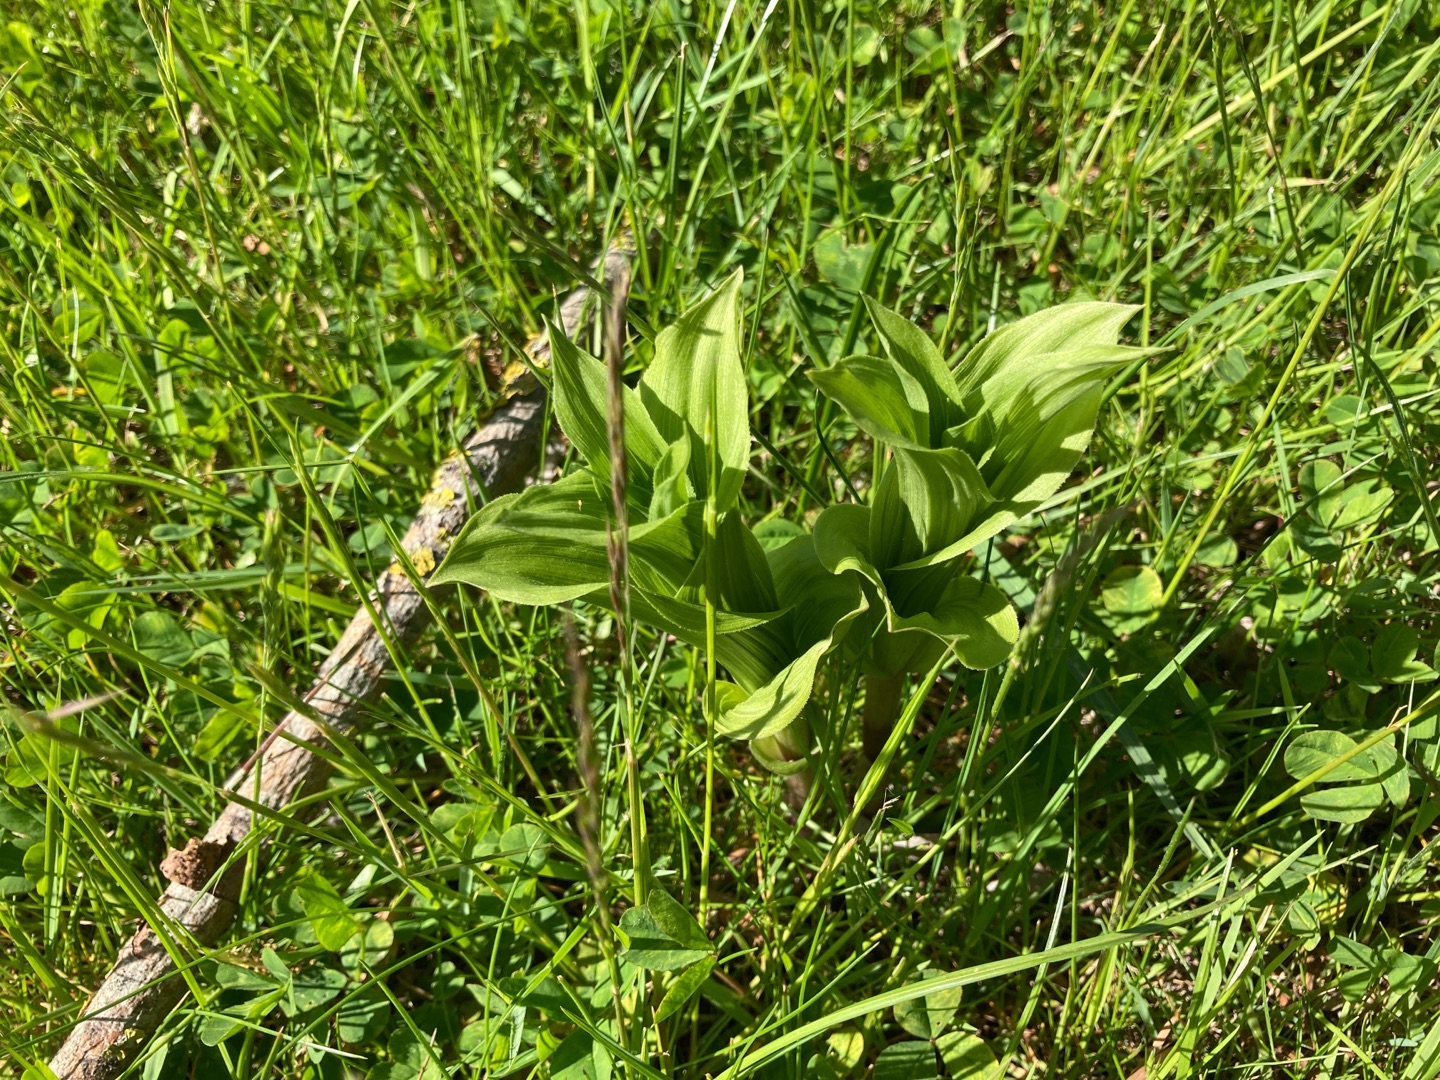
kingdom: Plantae
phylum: Tracheophyta
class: Liliopsida
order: Asparagales
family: Orchidaceae
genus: Epipactis
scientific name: Epipactis helleborine
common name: Skov-hullæbe
